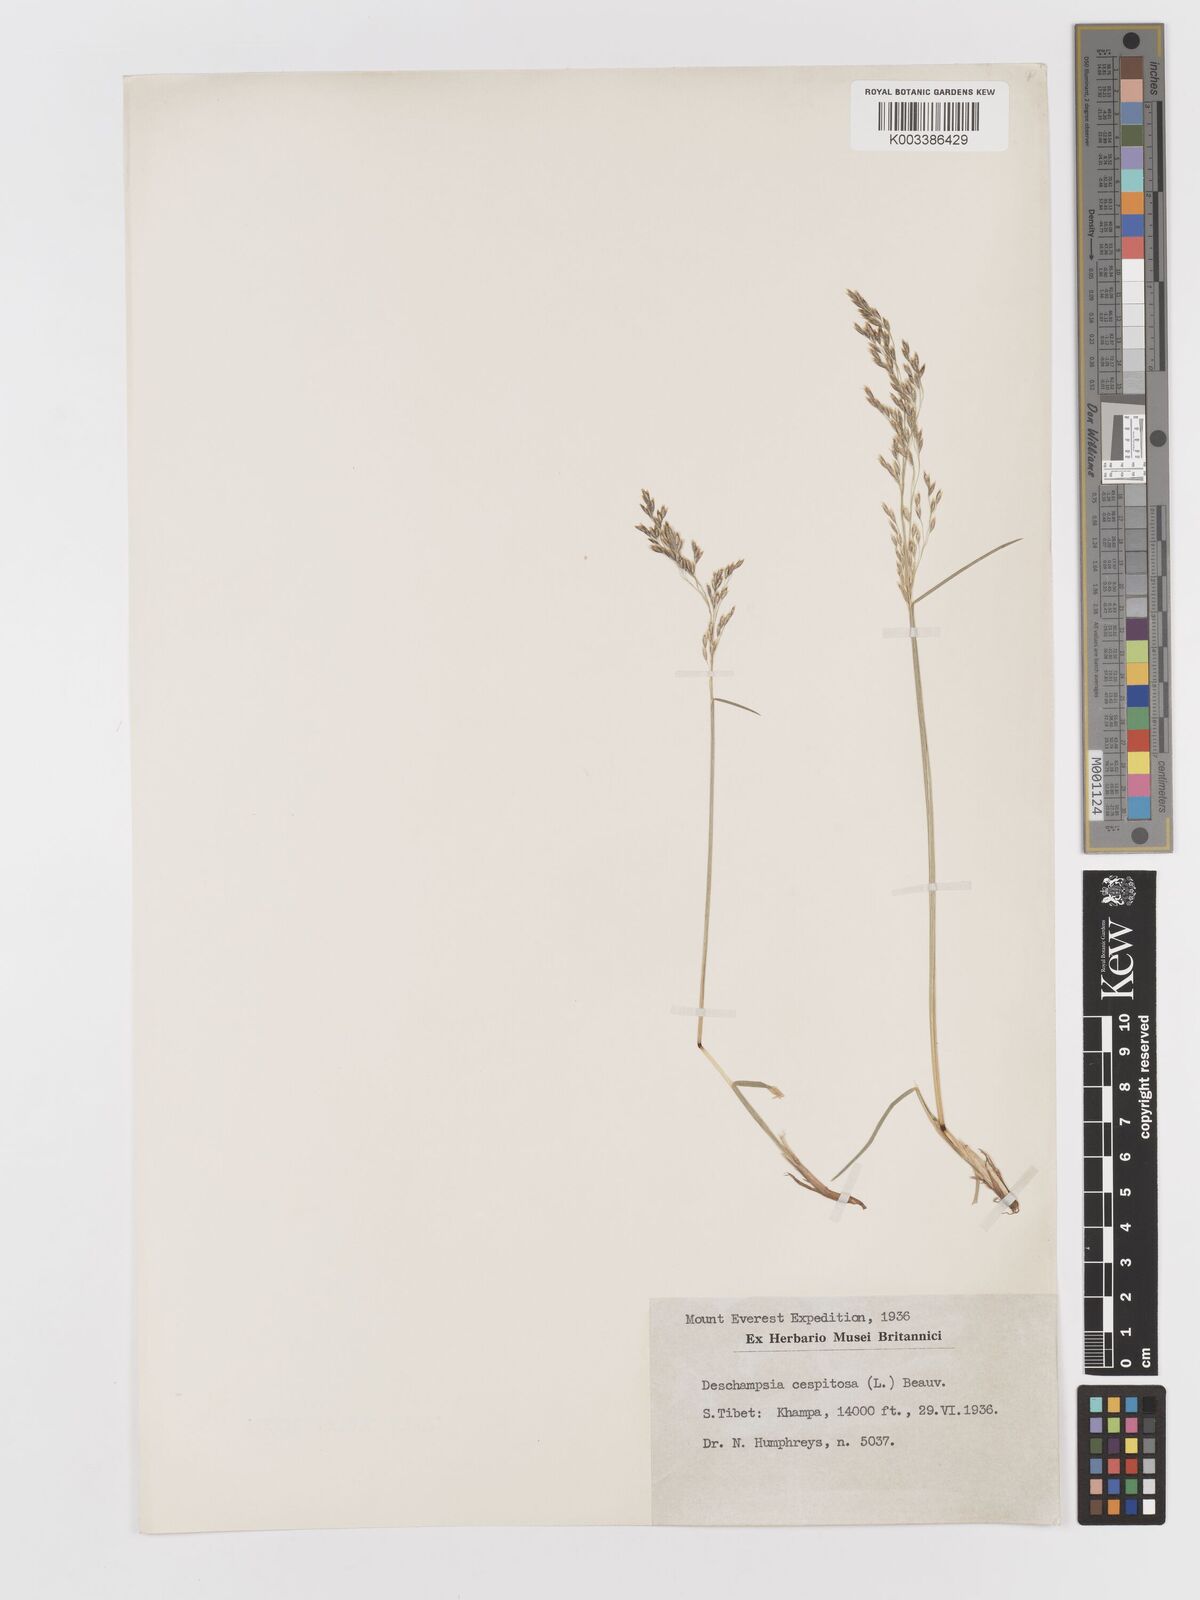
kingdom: Plantae
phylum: Tracheophyta
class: Liliopsida
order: Poales
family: Poaceae
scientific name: Poaceae
